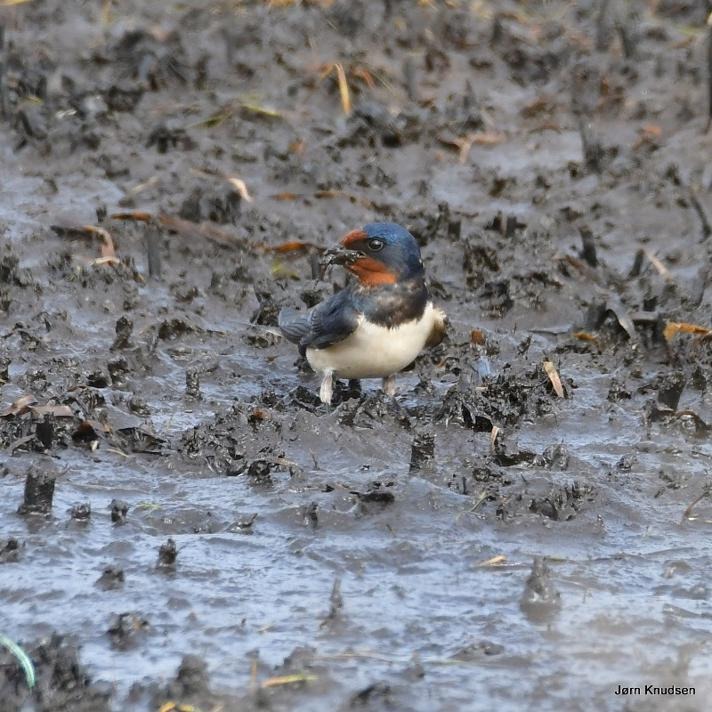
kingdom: Animalia
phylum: Chordata
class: Aves
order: Passeriformes
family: Hirundinidae
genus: Hirundo
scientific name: Hirundo rustica
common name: Landsvale
